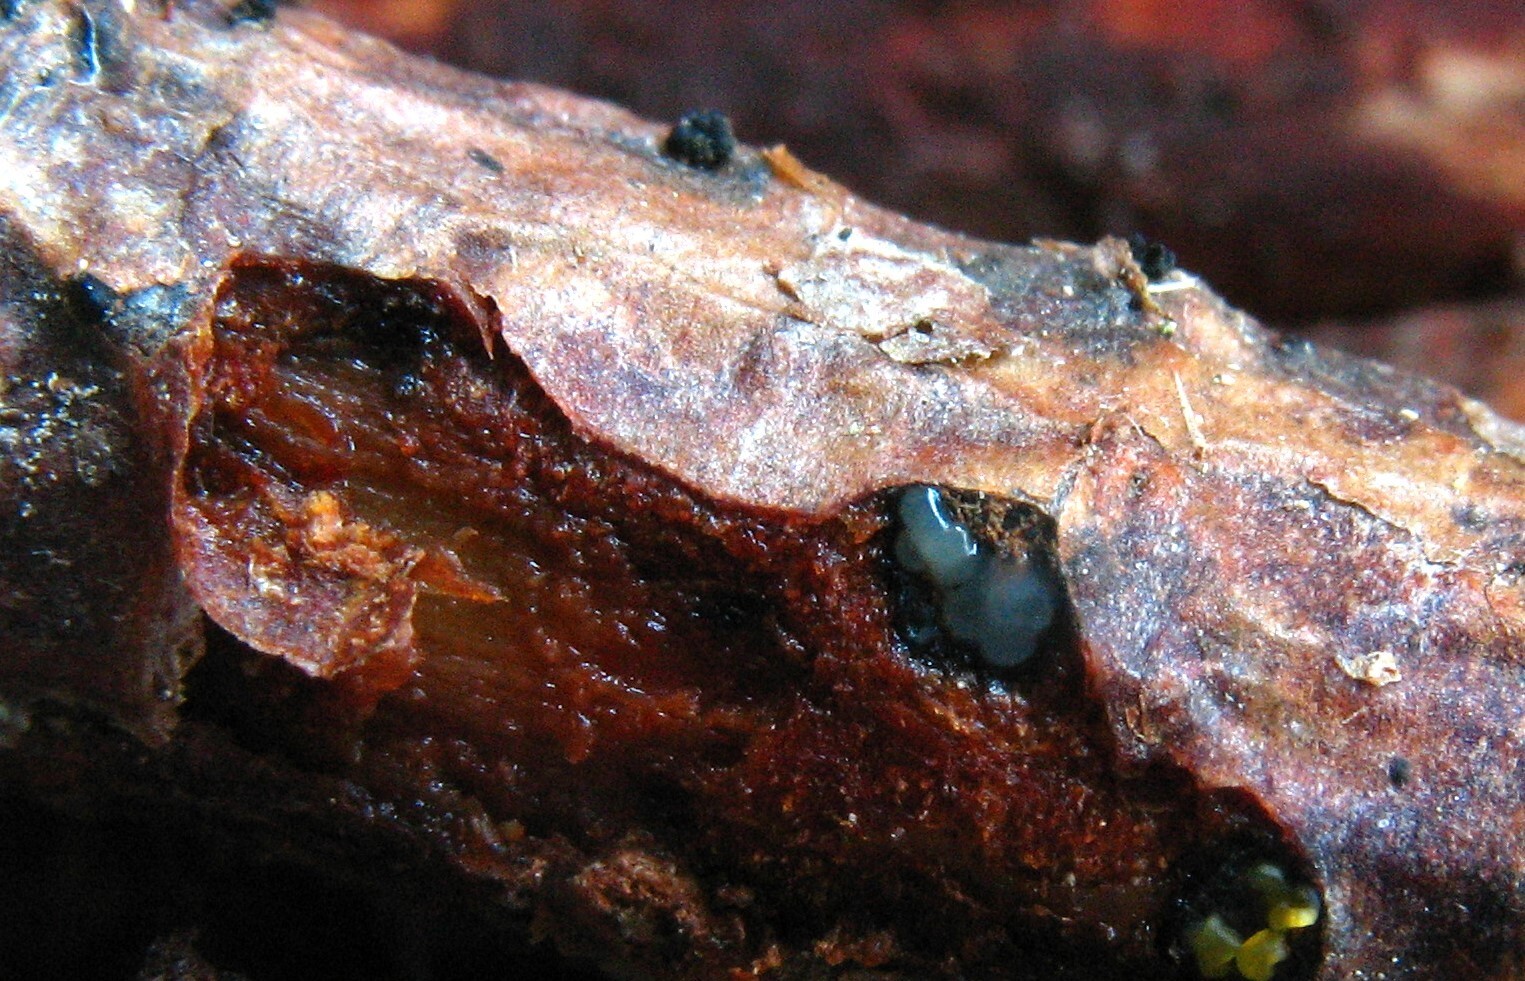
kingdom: Fungi
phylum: Ascomycota
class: Sordariomycetes
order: Diaporthales
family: Valsaceae
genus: Valsa
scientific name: Valsa pini
